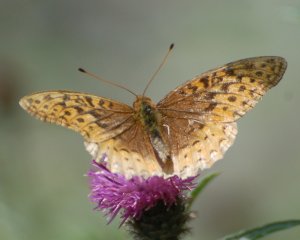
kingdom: Animalia
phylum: Arthropoda
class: Insecta
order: Lepidoptera
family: Nymphalidae
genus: Speyeria
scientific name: Speyeria cybele
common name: Great Spangled Fritillary
